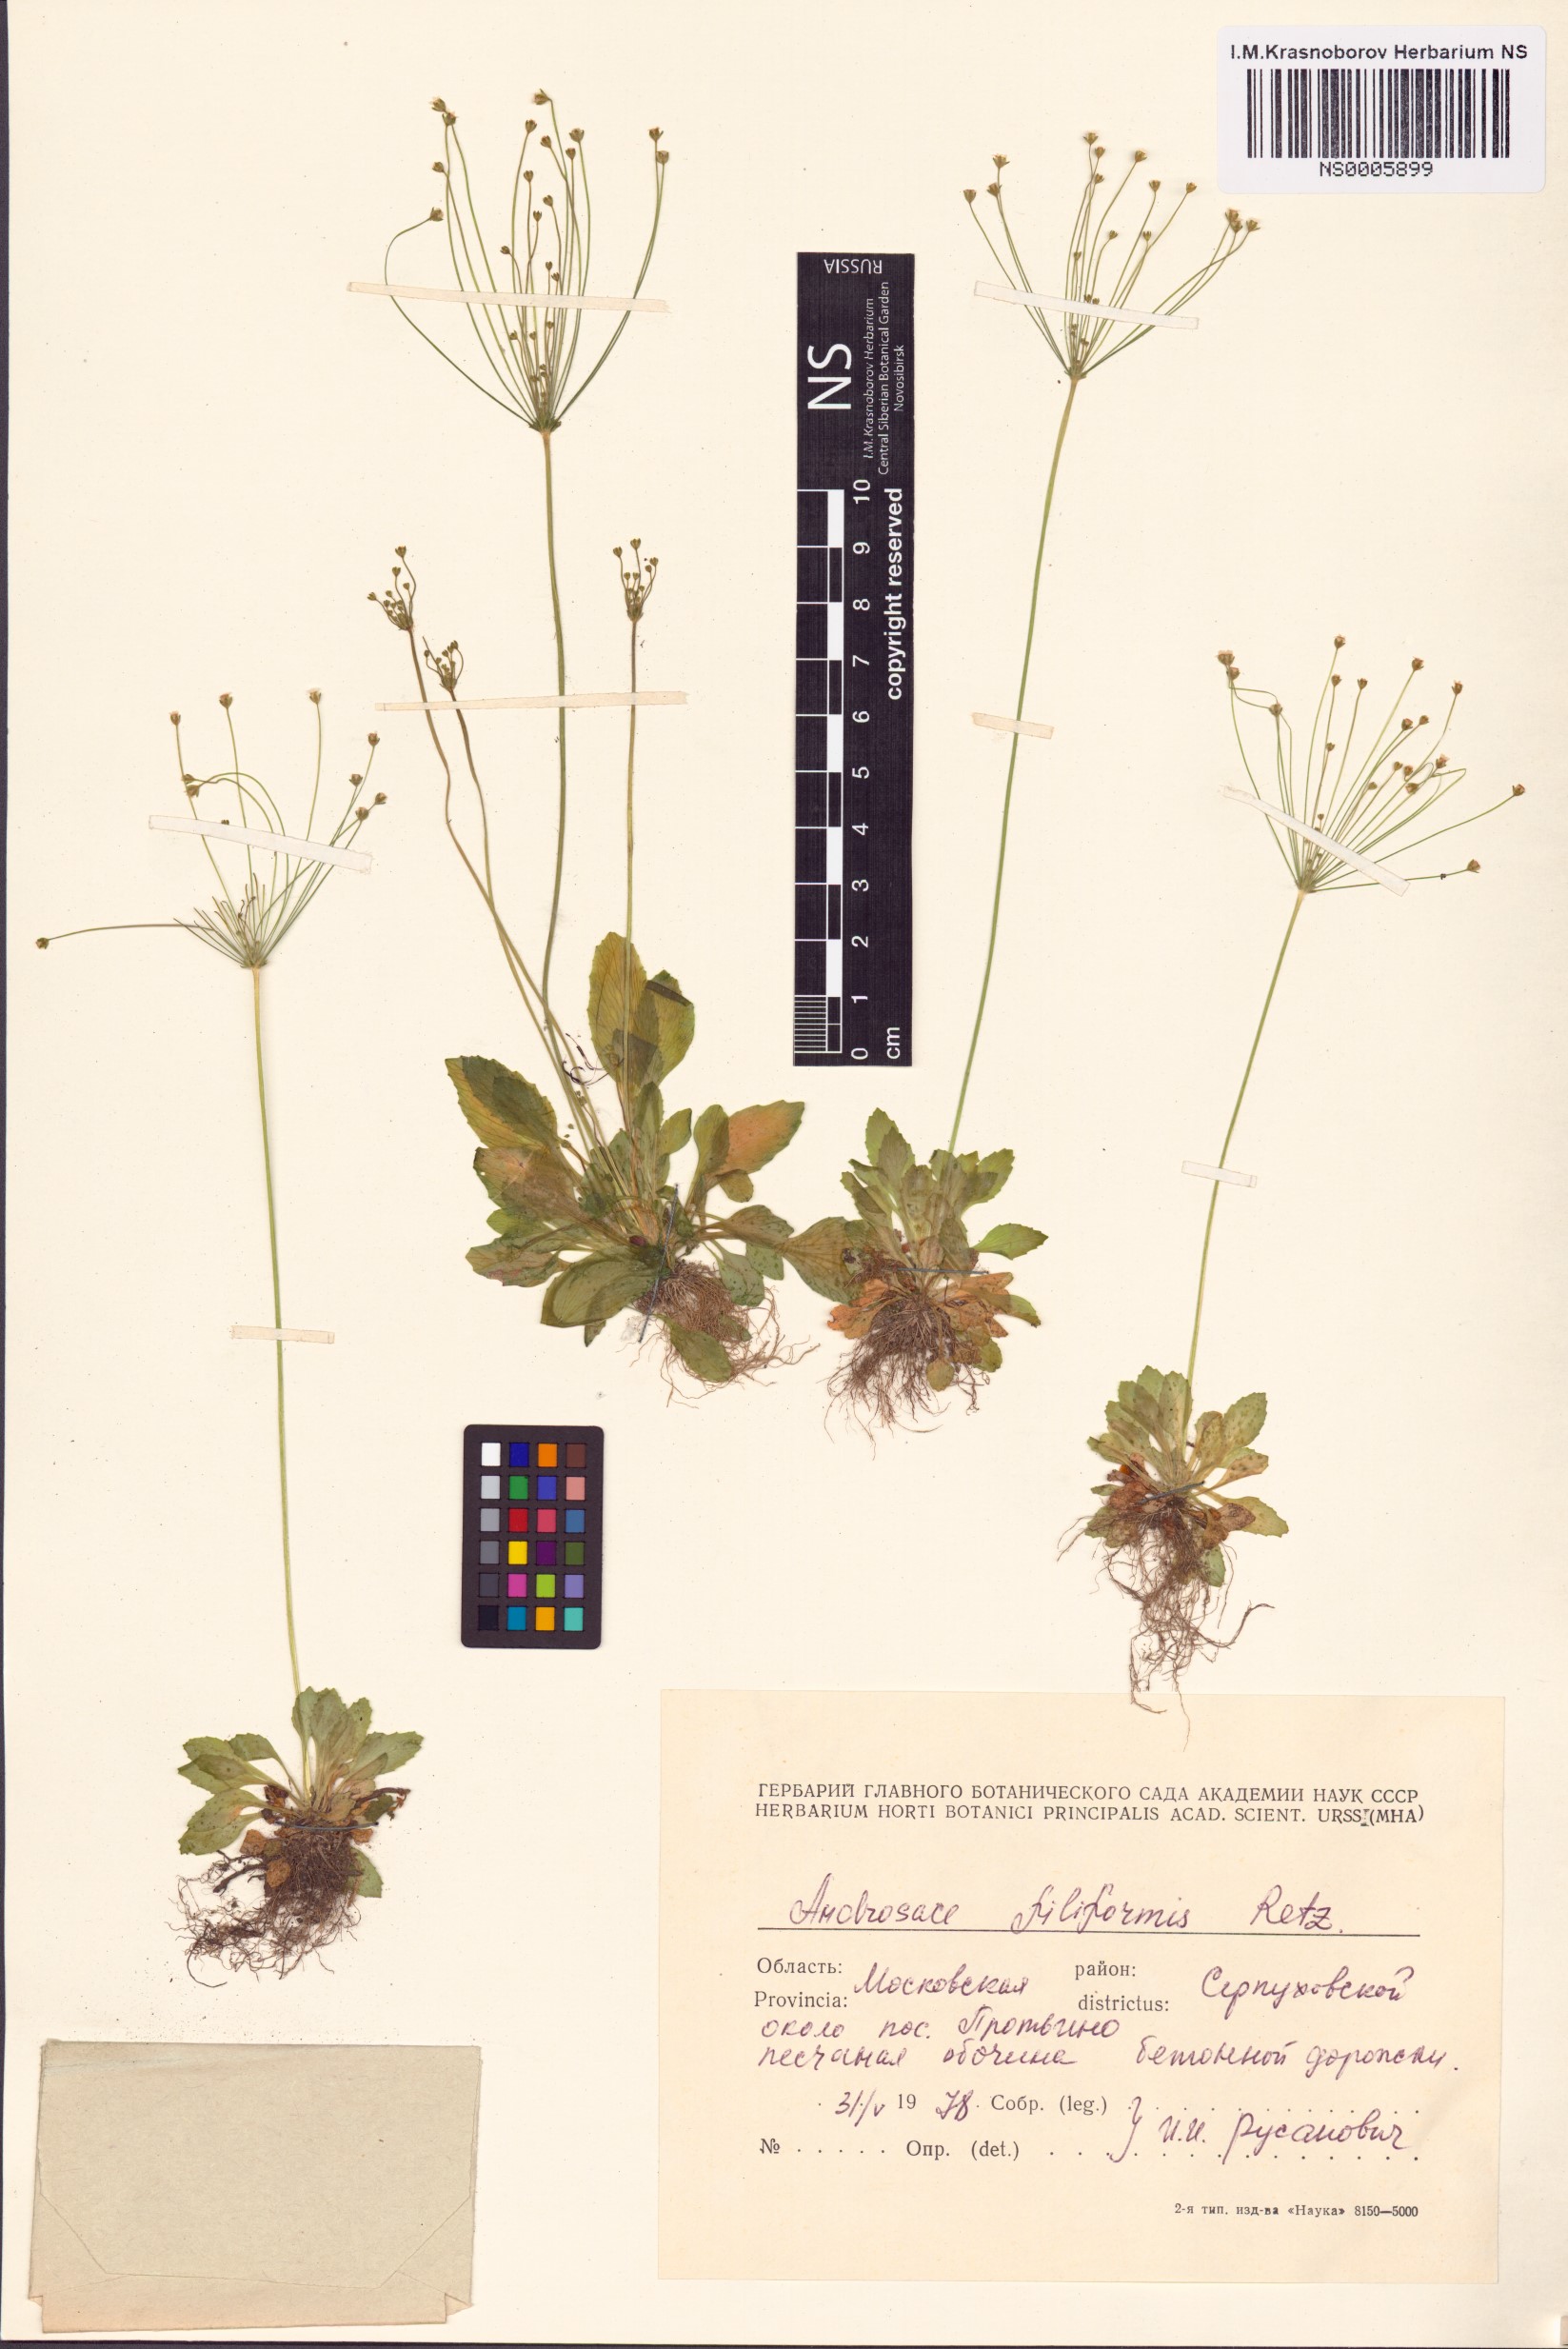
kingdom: Plantae
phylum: Tracheophyta
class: Magnoliopsida
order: Ericales
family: Primulaceae
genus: Androsace
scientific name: Androsace filiformis
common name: Filiform rock jasmine
